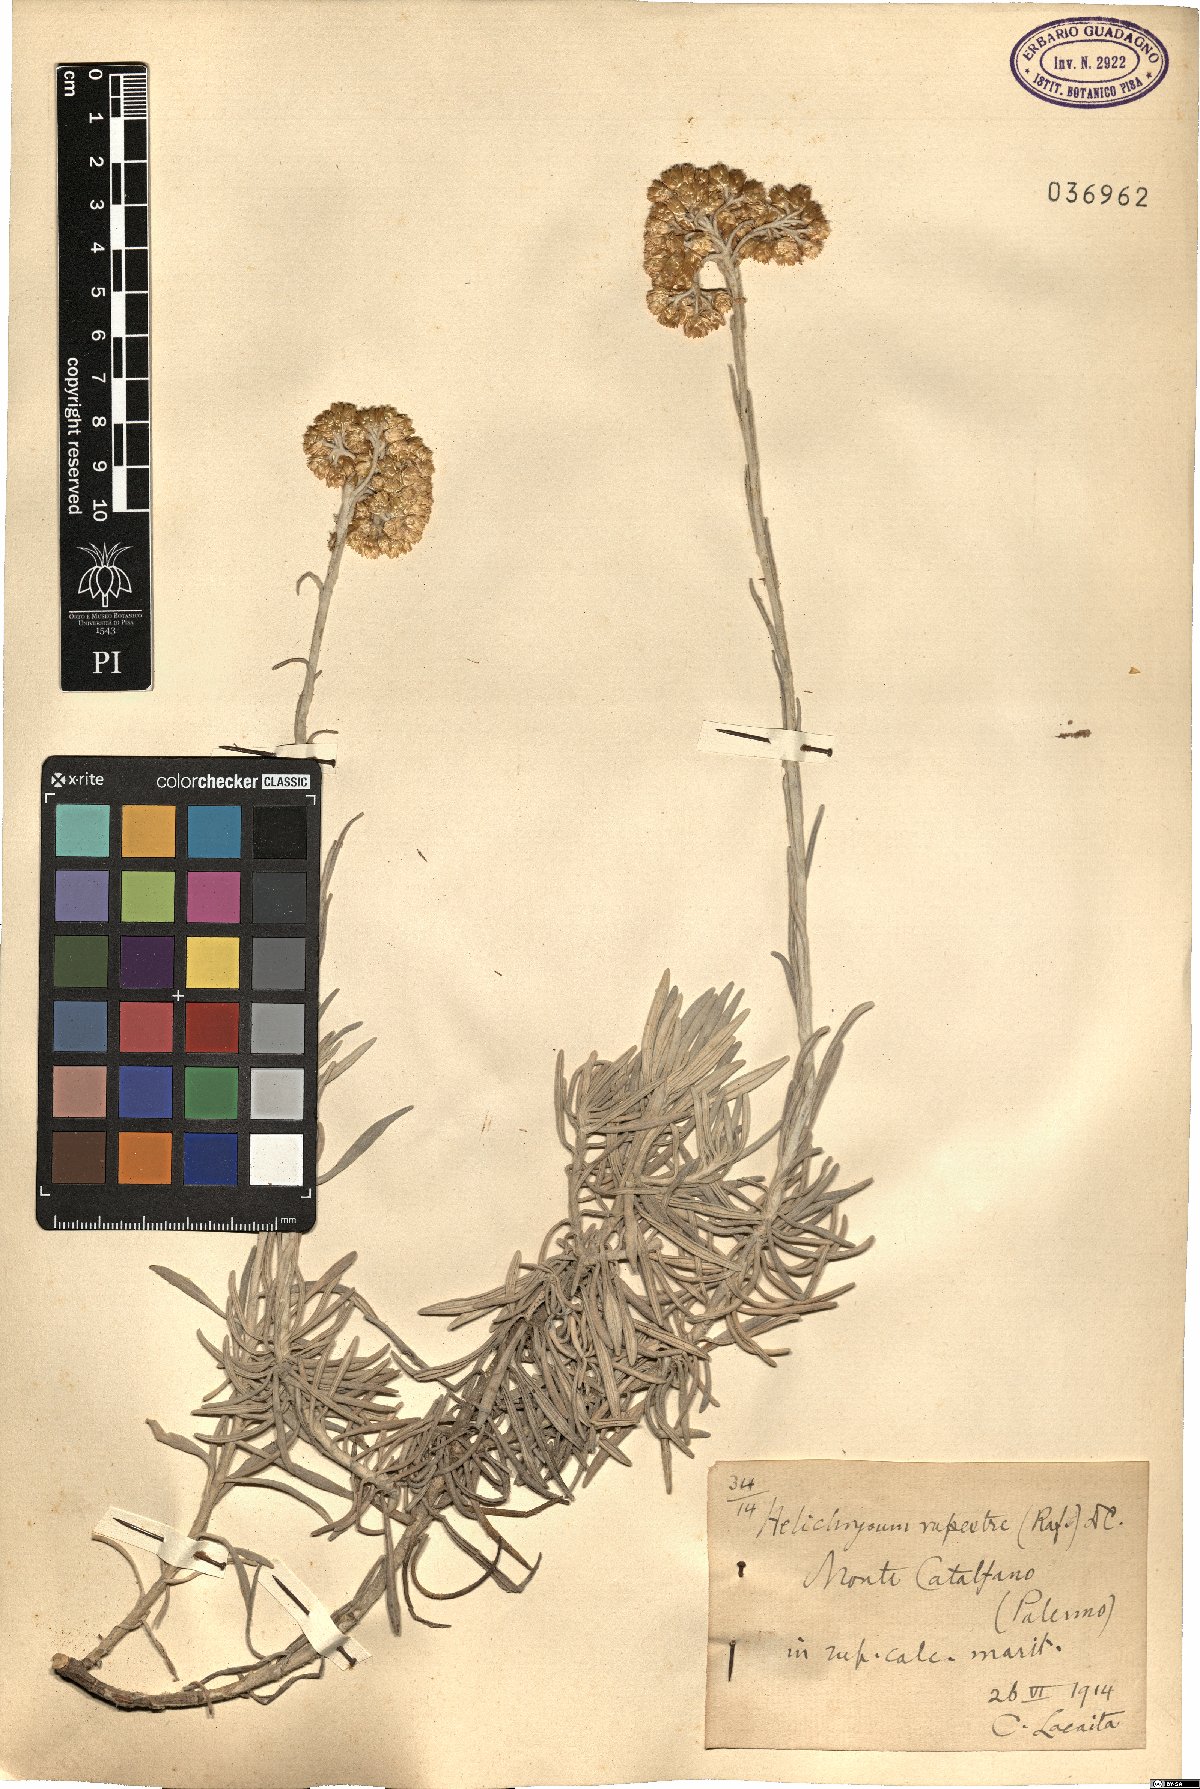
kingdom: Plantae
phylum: Tracheophyta
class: Magnoliopsida
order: Asterales
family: Asteraceae
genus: Helichrysum
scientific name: Helichrysum panormitanum
